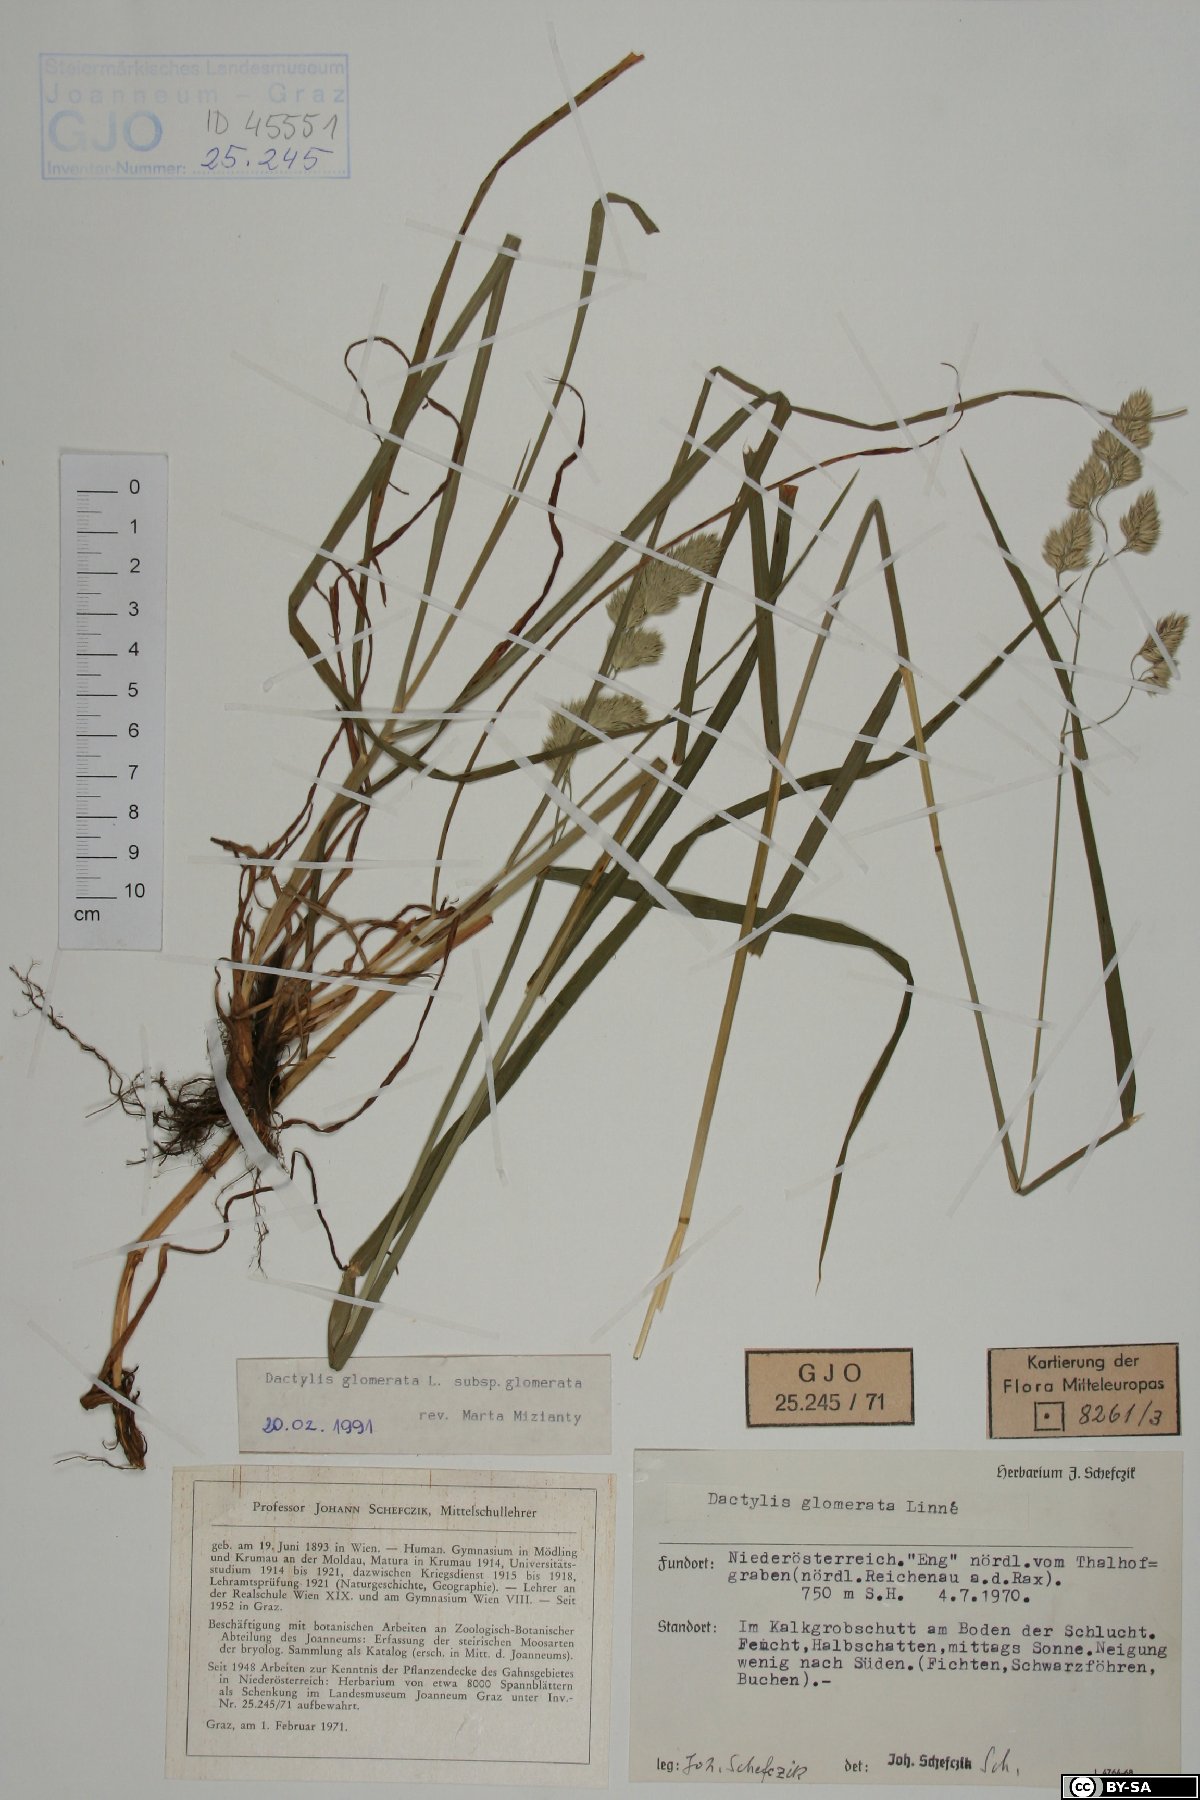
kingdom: Plantae
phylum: Tracheophyta
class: Liliopsida
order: Poales
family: Poaceae
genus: Dactylis
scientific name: Dactylis glomerata
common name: Orchardgrass
